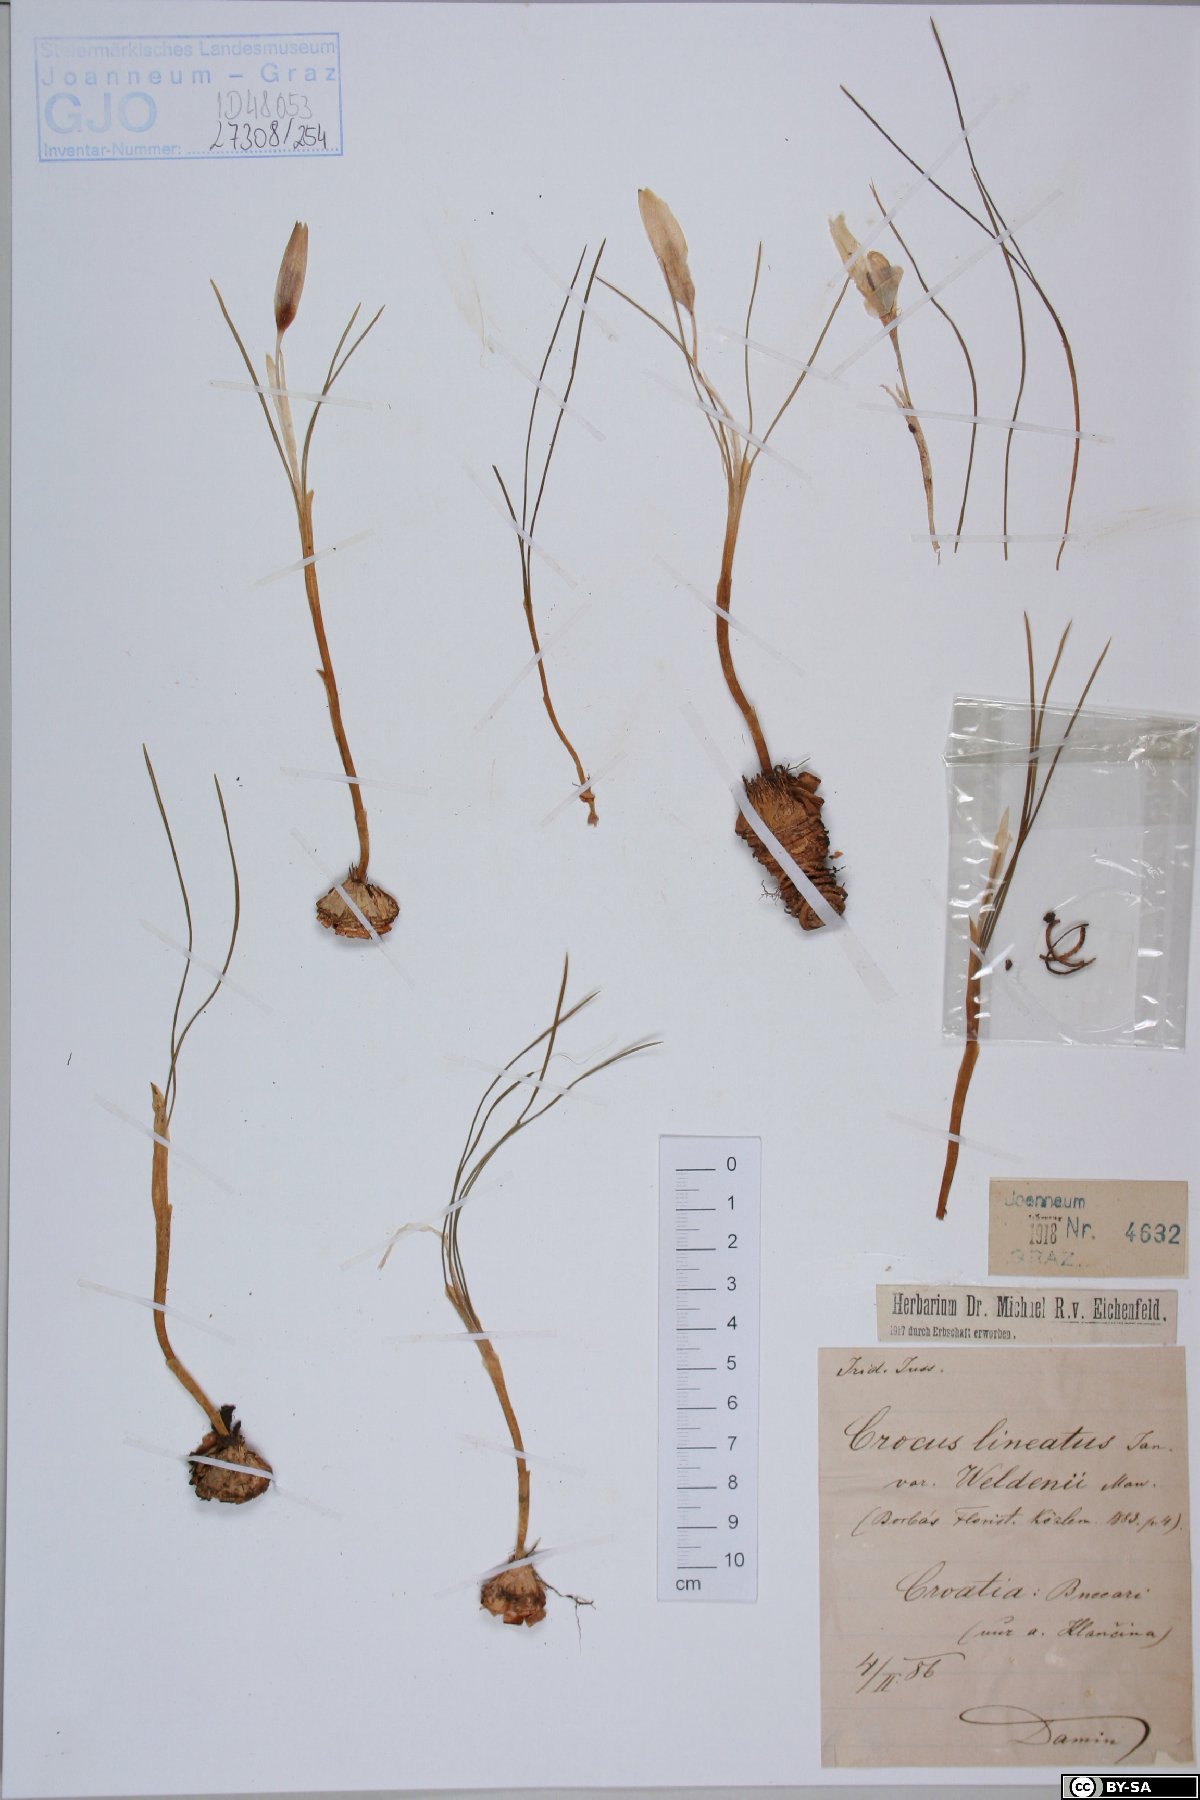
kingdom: Plantae
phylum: Tracheophyta
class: Liliopsida
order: Asparagales
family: Iridaceae
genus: Crocus
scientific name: Crocus weldenii
